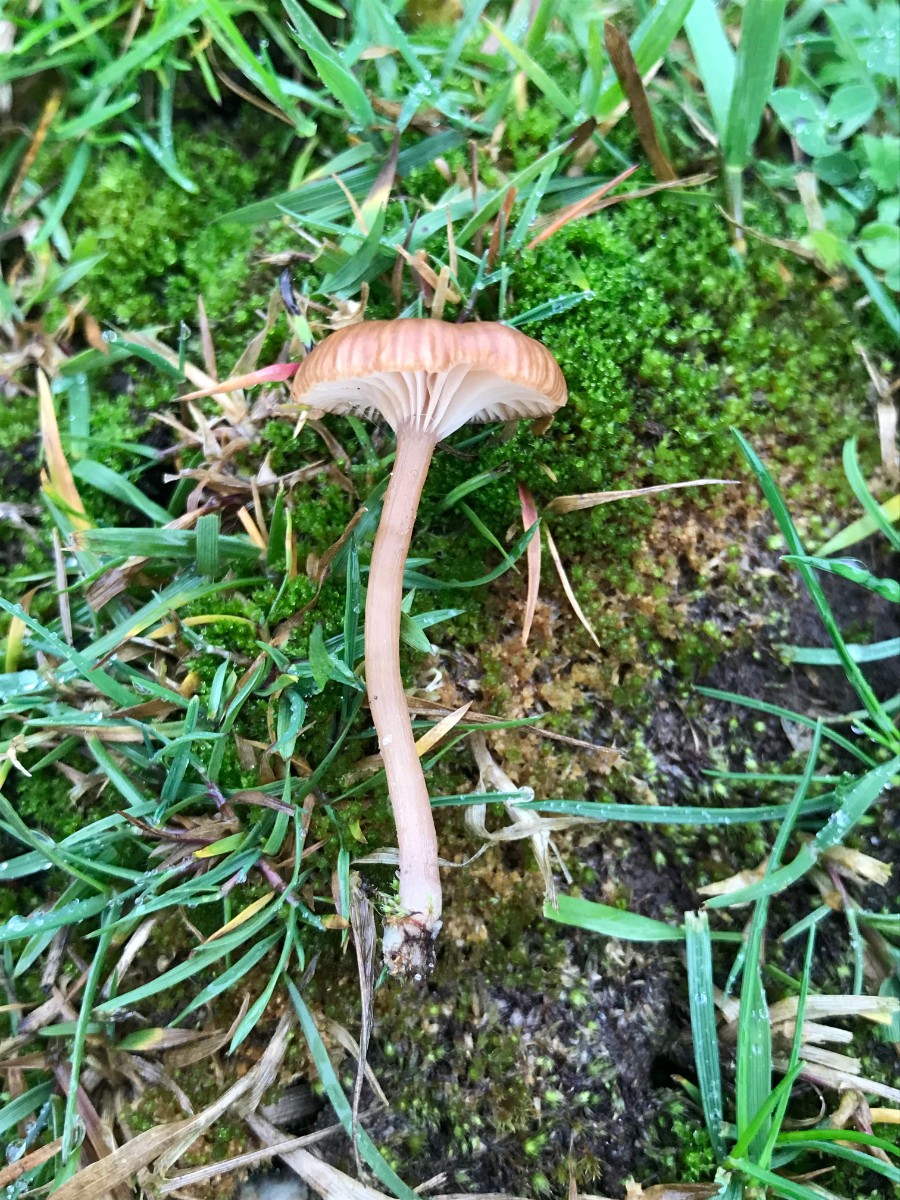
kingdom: Fungi
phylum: Basidiomycota
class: Agaricomycetes
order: Agaricales
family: Tricholomataceae
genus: Omphalina
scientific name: Omphalina pyxidata
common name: rødbrun navlehat
